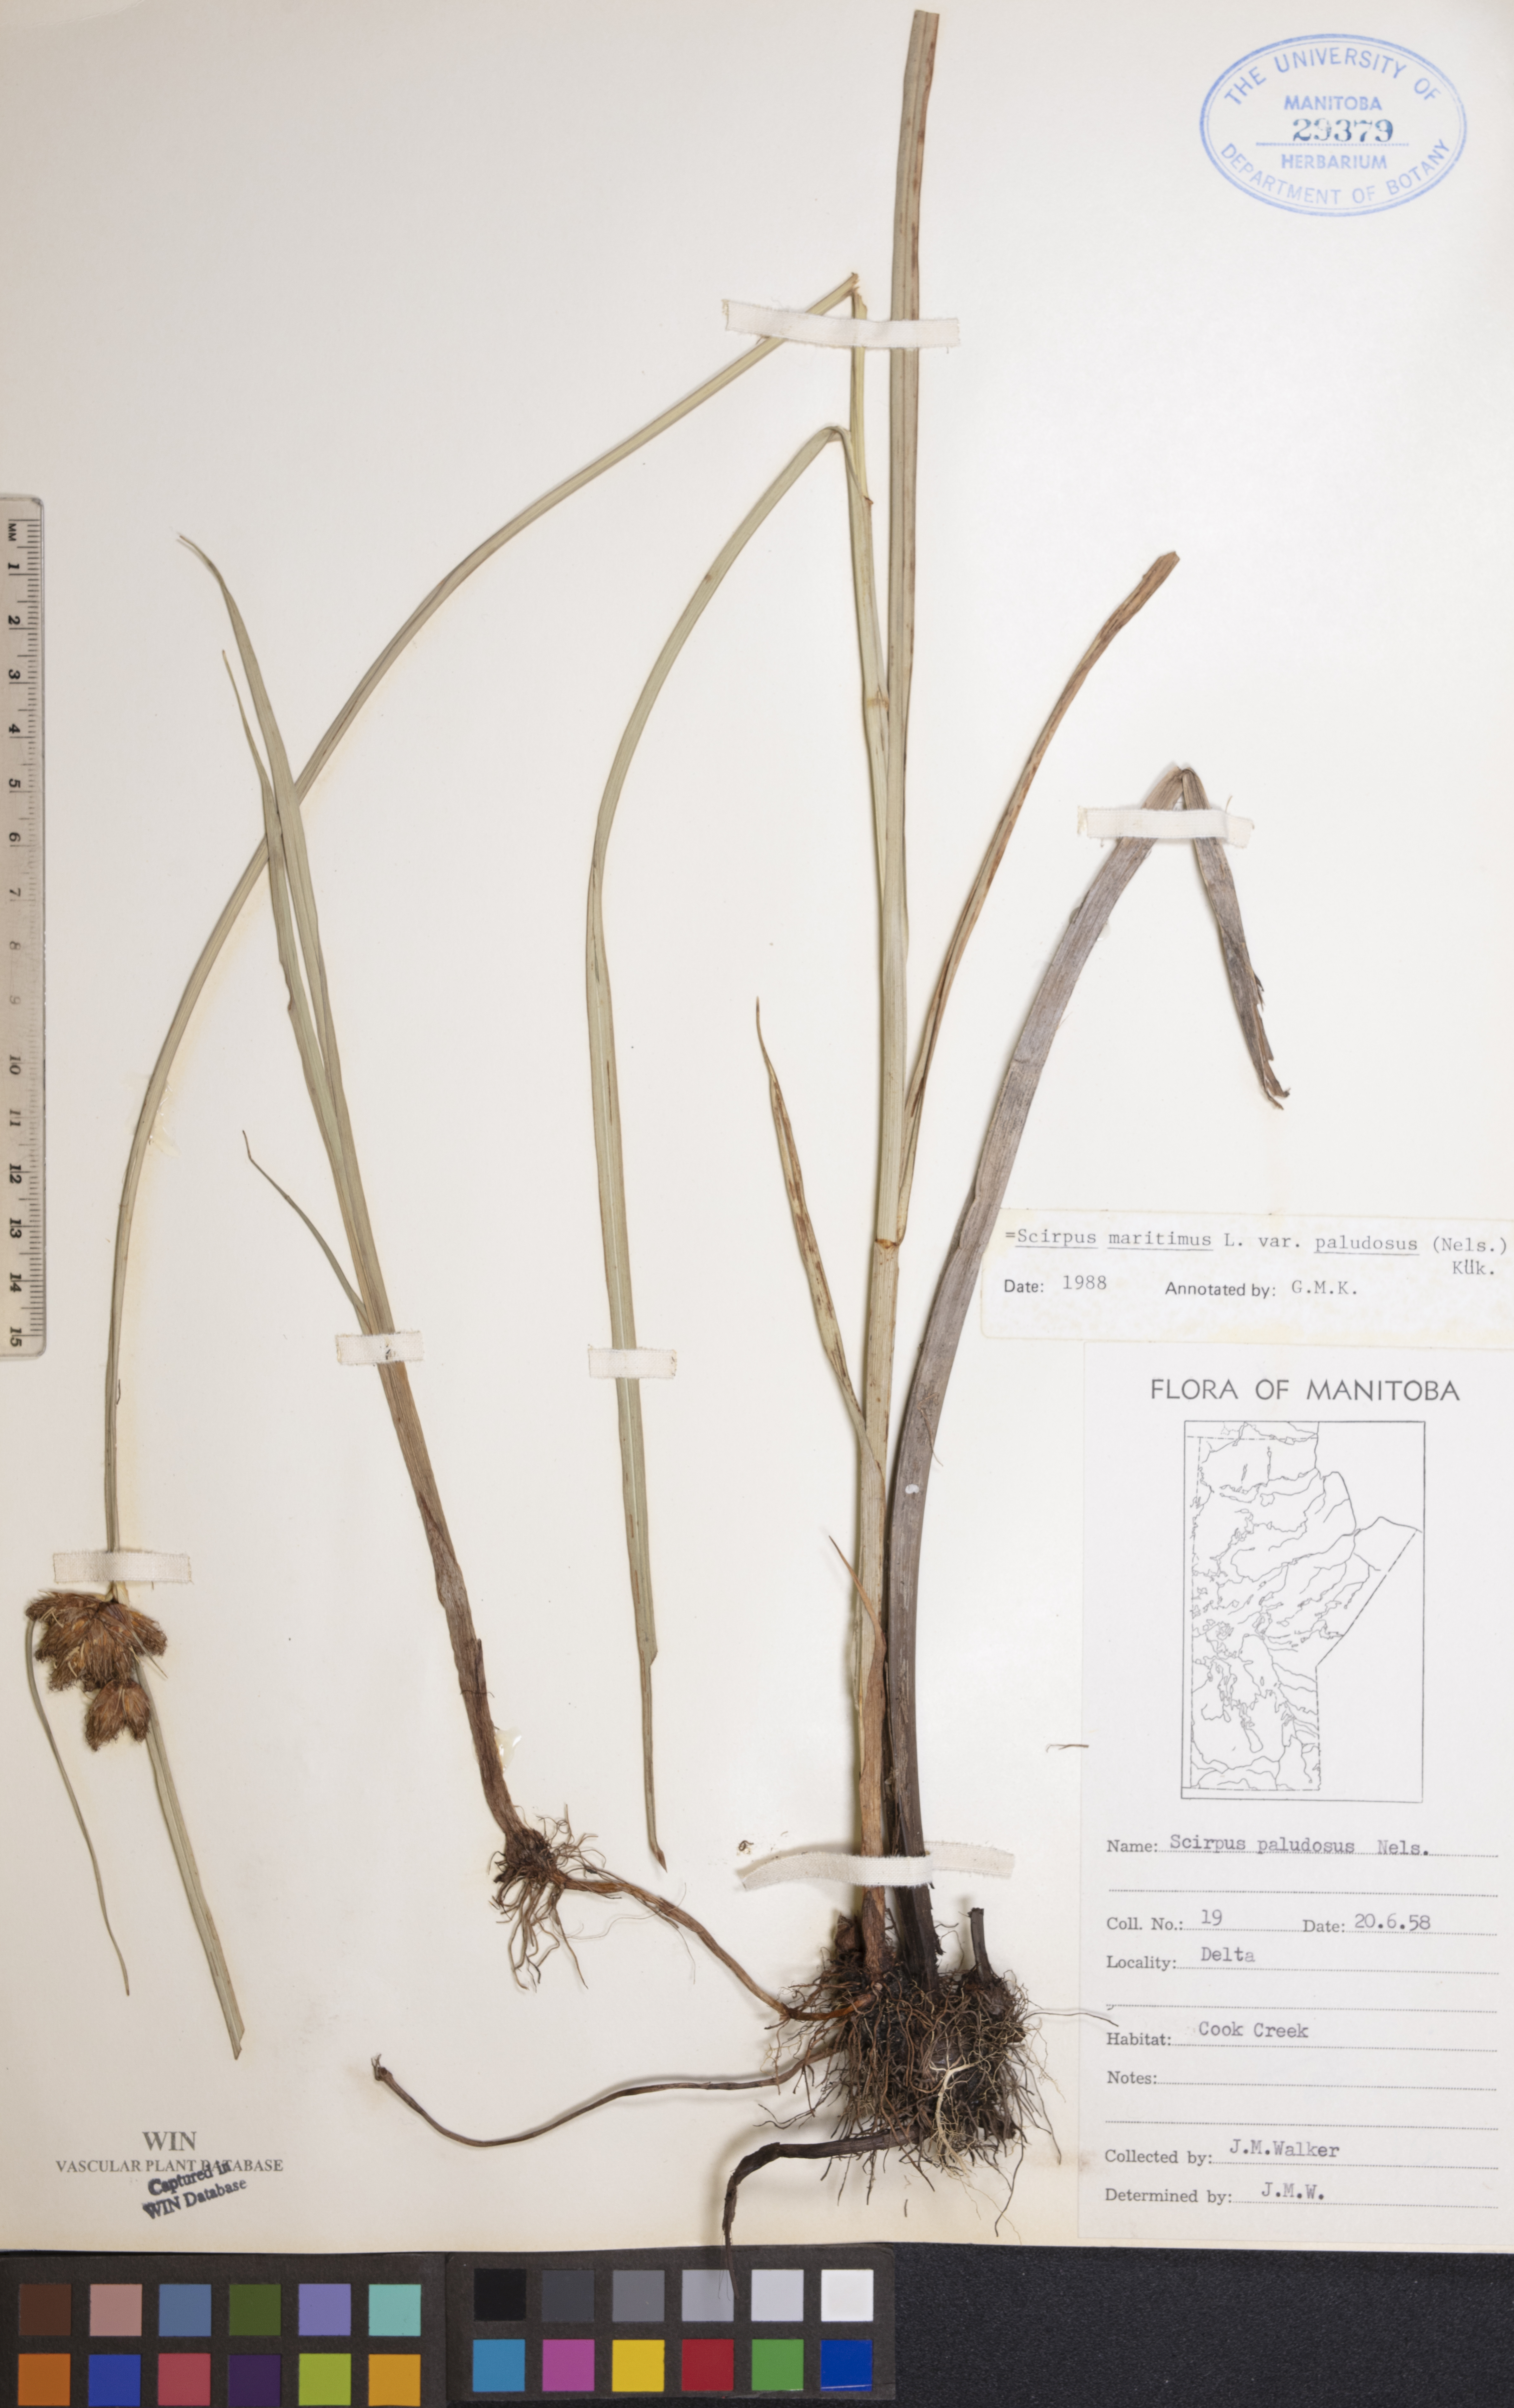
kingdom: Plantae
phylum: Tracheophyta
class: Liliopsida
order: Poales
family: Cyperaceae
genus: Bolboschoenus
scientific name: Bolboschoenus maritimus
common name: Sea club-rush
